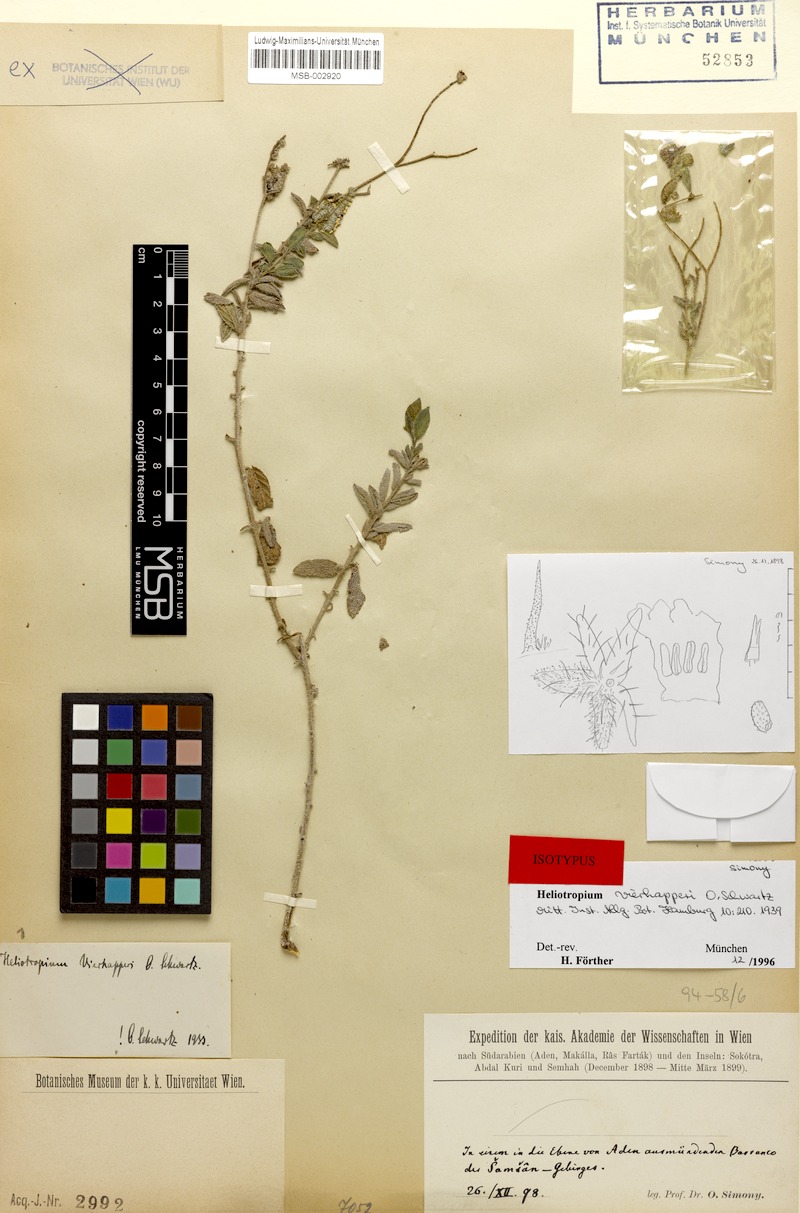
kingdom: Plantae
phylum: Tracheophyta
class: Magnoliopsida
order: Boraginales
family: Heliotropiaceae
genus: Heliotropium
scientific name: Heliotropium ophioglossum
